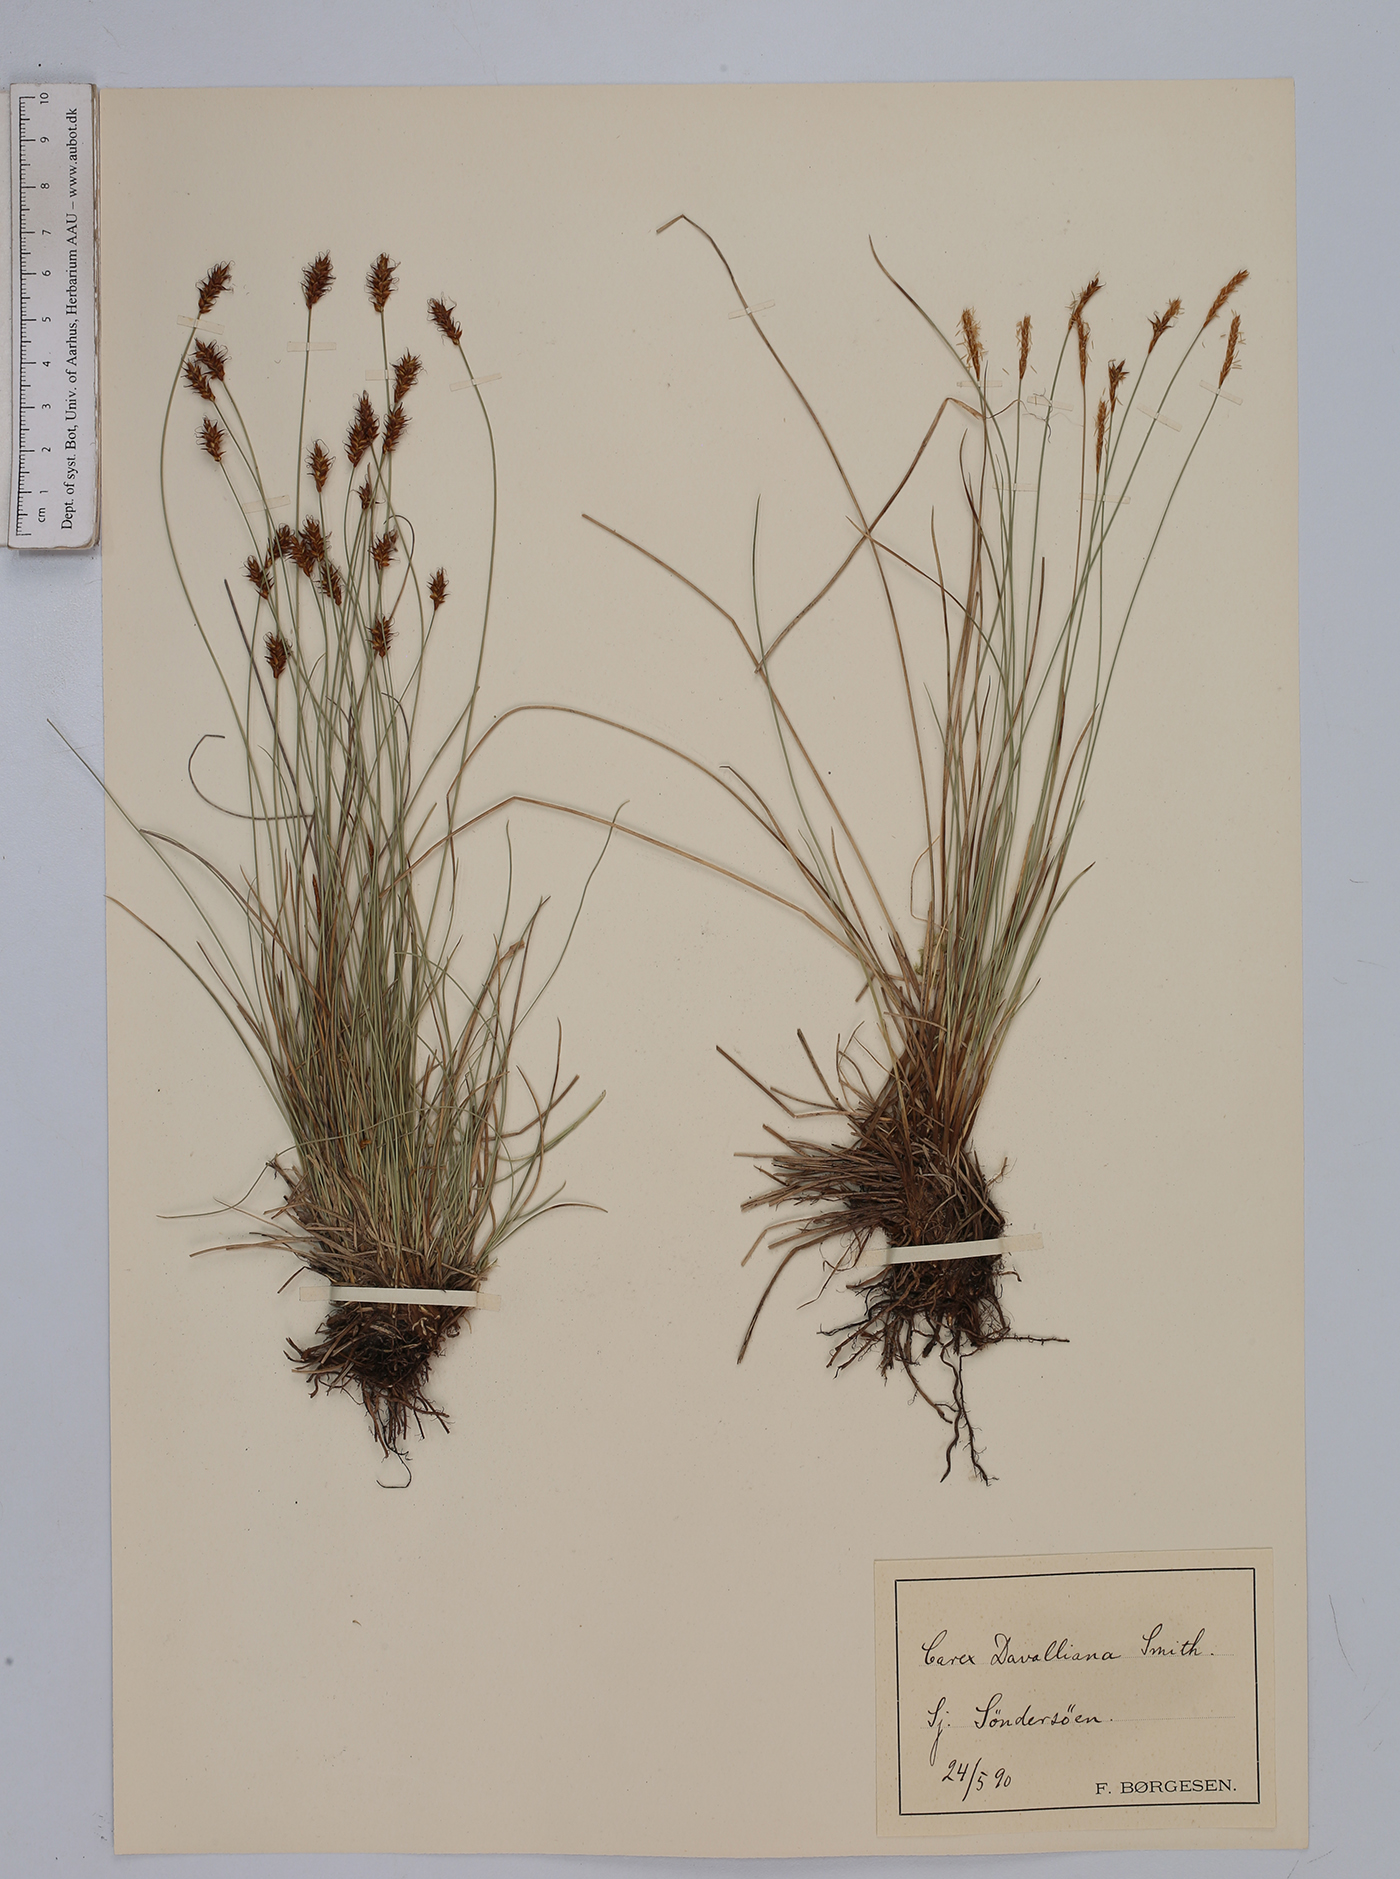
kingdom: Plantae
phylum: Tracheophyta
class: Liliopsida
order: Poales
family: Cyperaceae
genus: Carex
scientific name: Carex davalliana
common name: Davall's sedge
